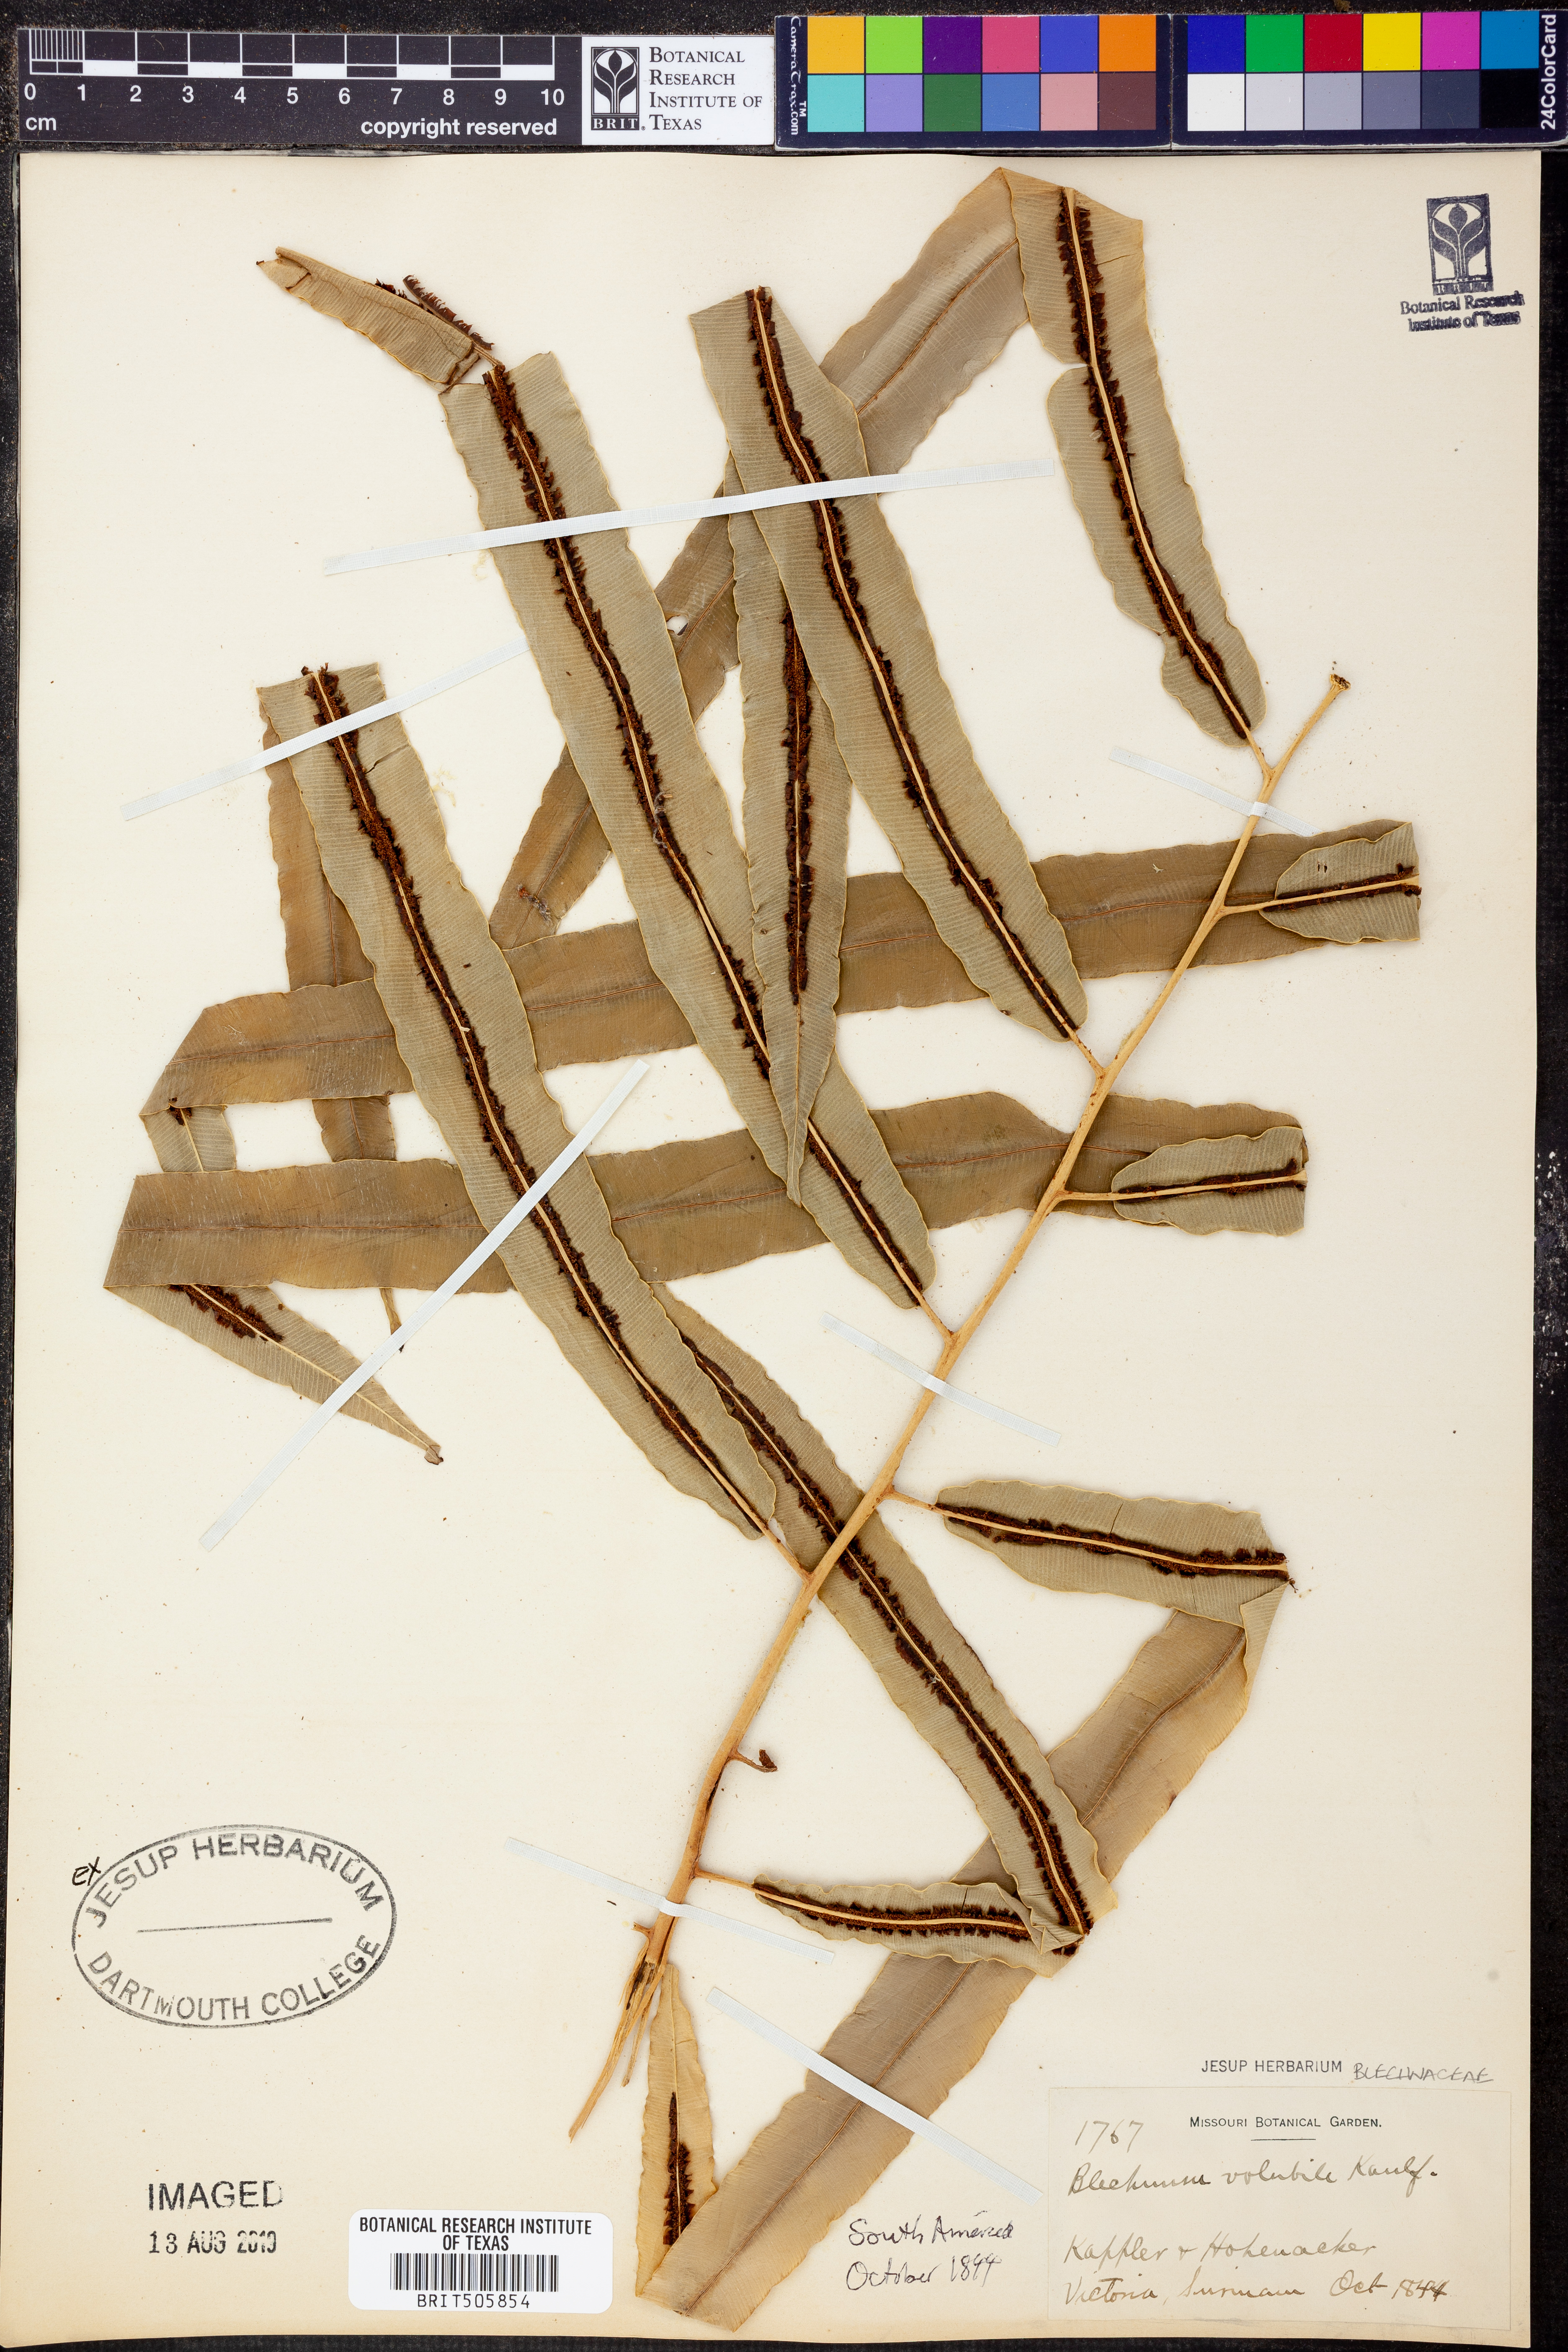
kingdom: Plantae
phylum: Tracheophyta
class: Polypodiopsida
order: Polypodiales
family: Blechnaceae
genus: Salpichlaena
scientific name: Salpichlaena volubilis
